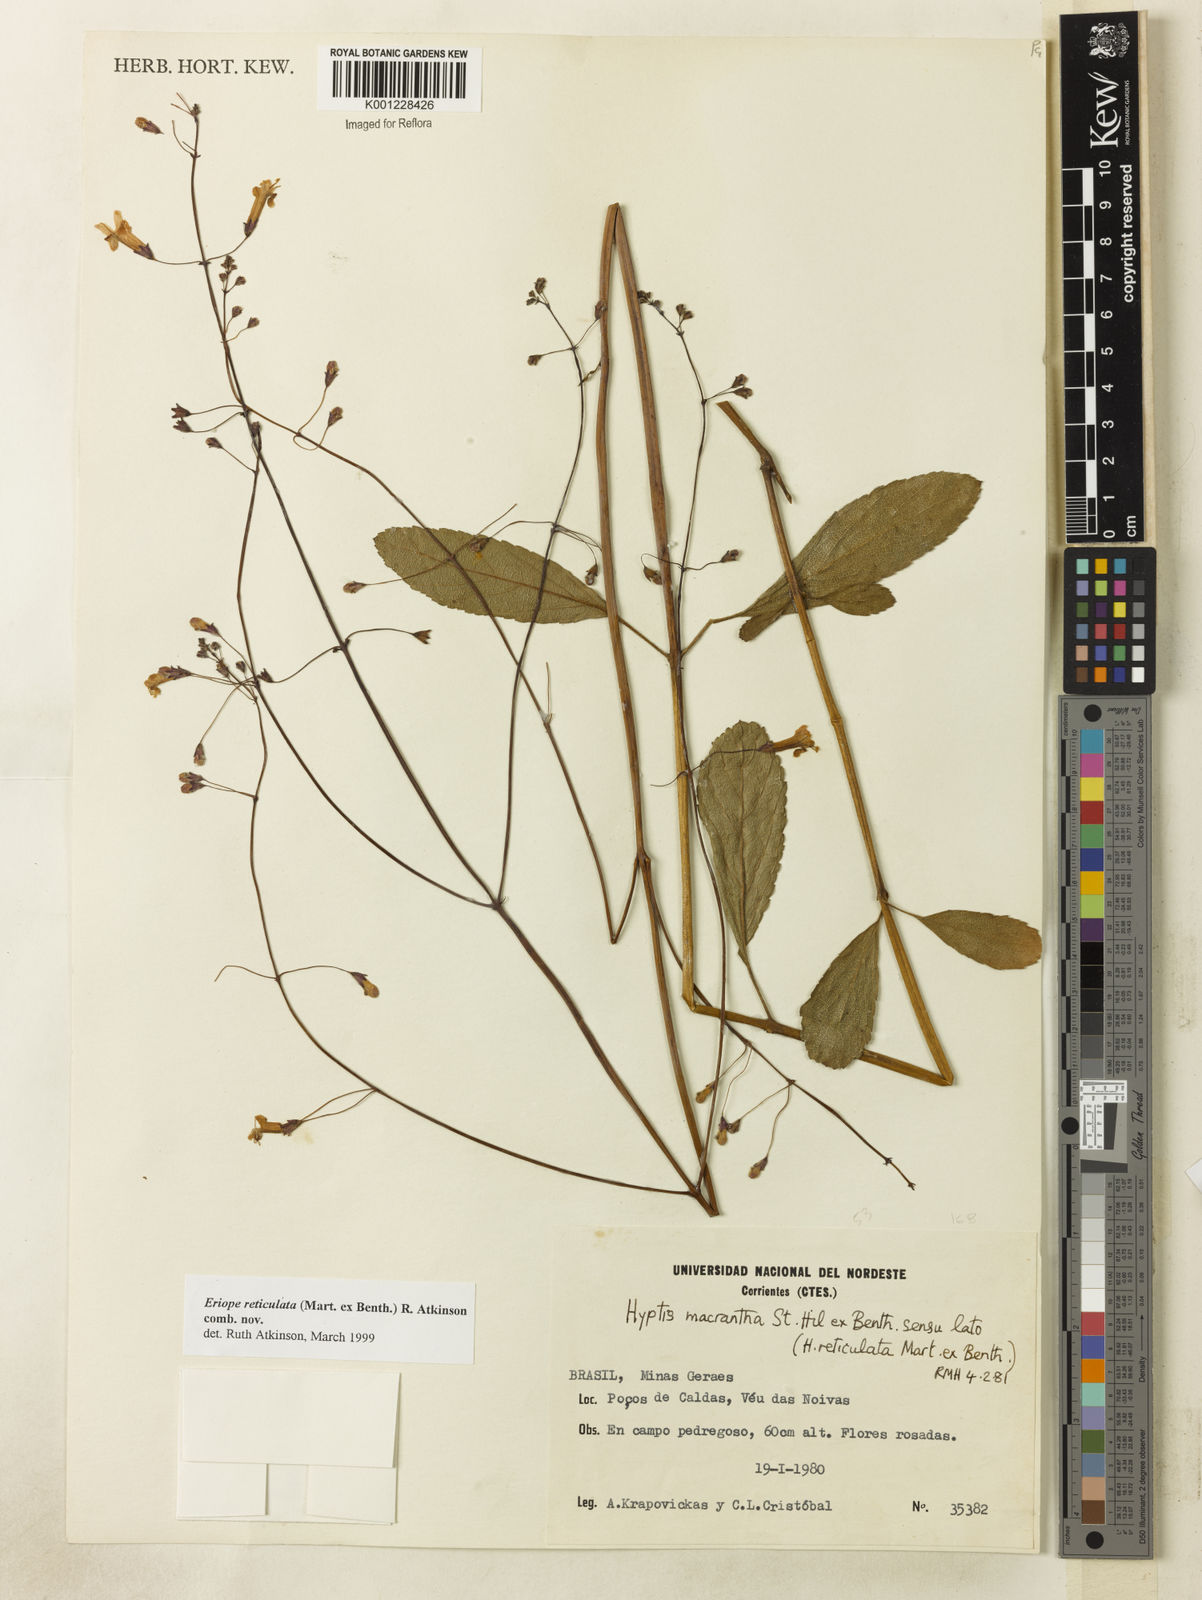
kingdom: Plantae
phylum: Tracheophyta
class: Magnoliopsida
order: Lamiales
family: Lamiaceae
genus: Hypenia
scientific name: Hypenia reticulata
